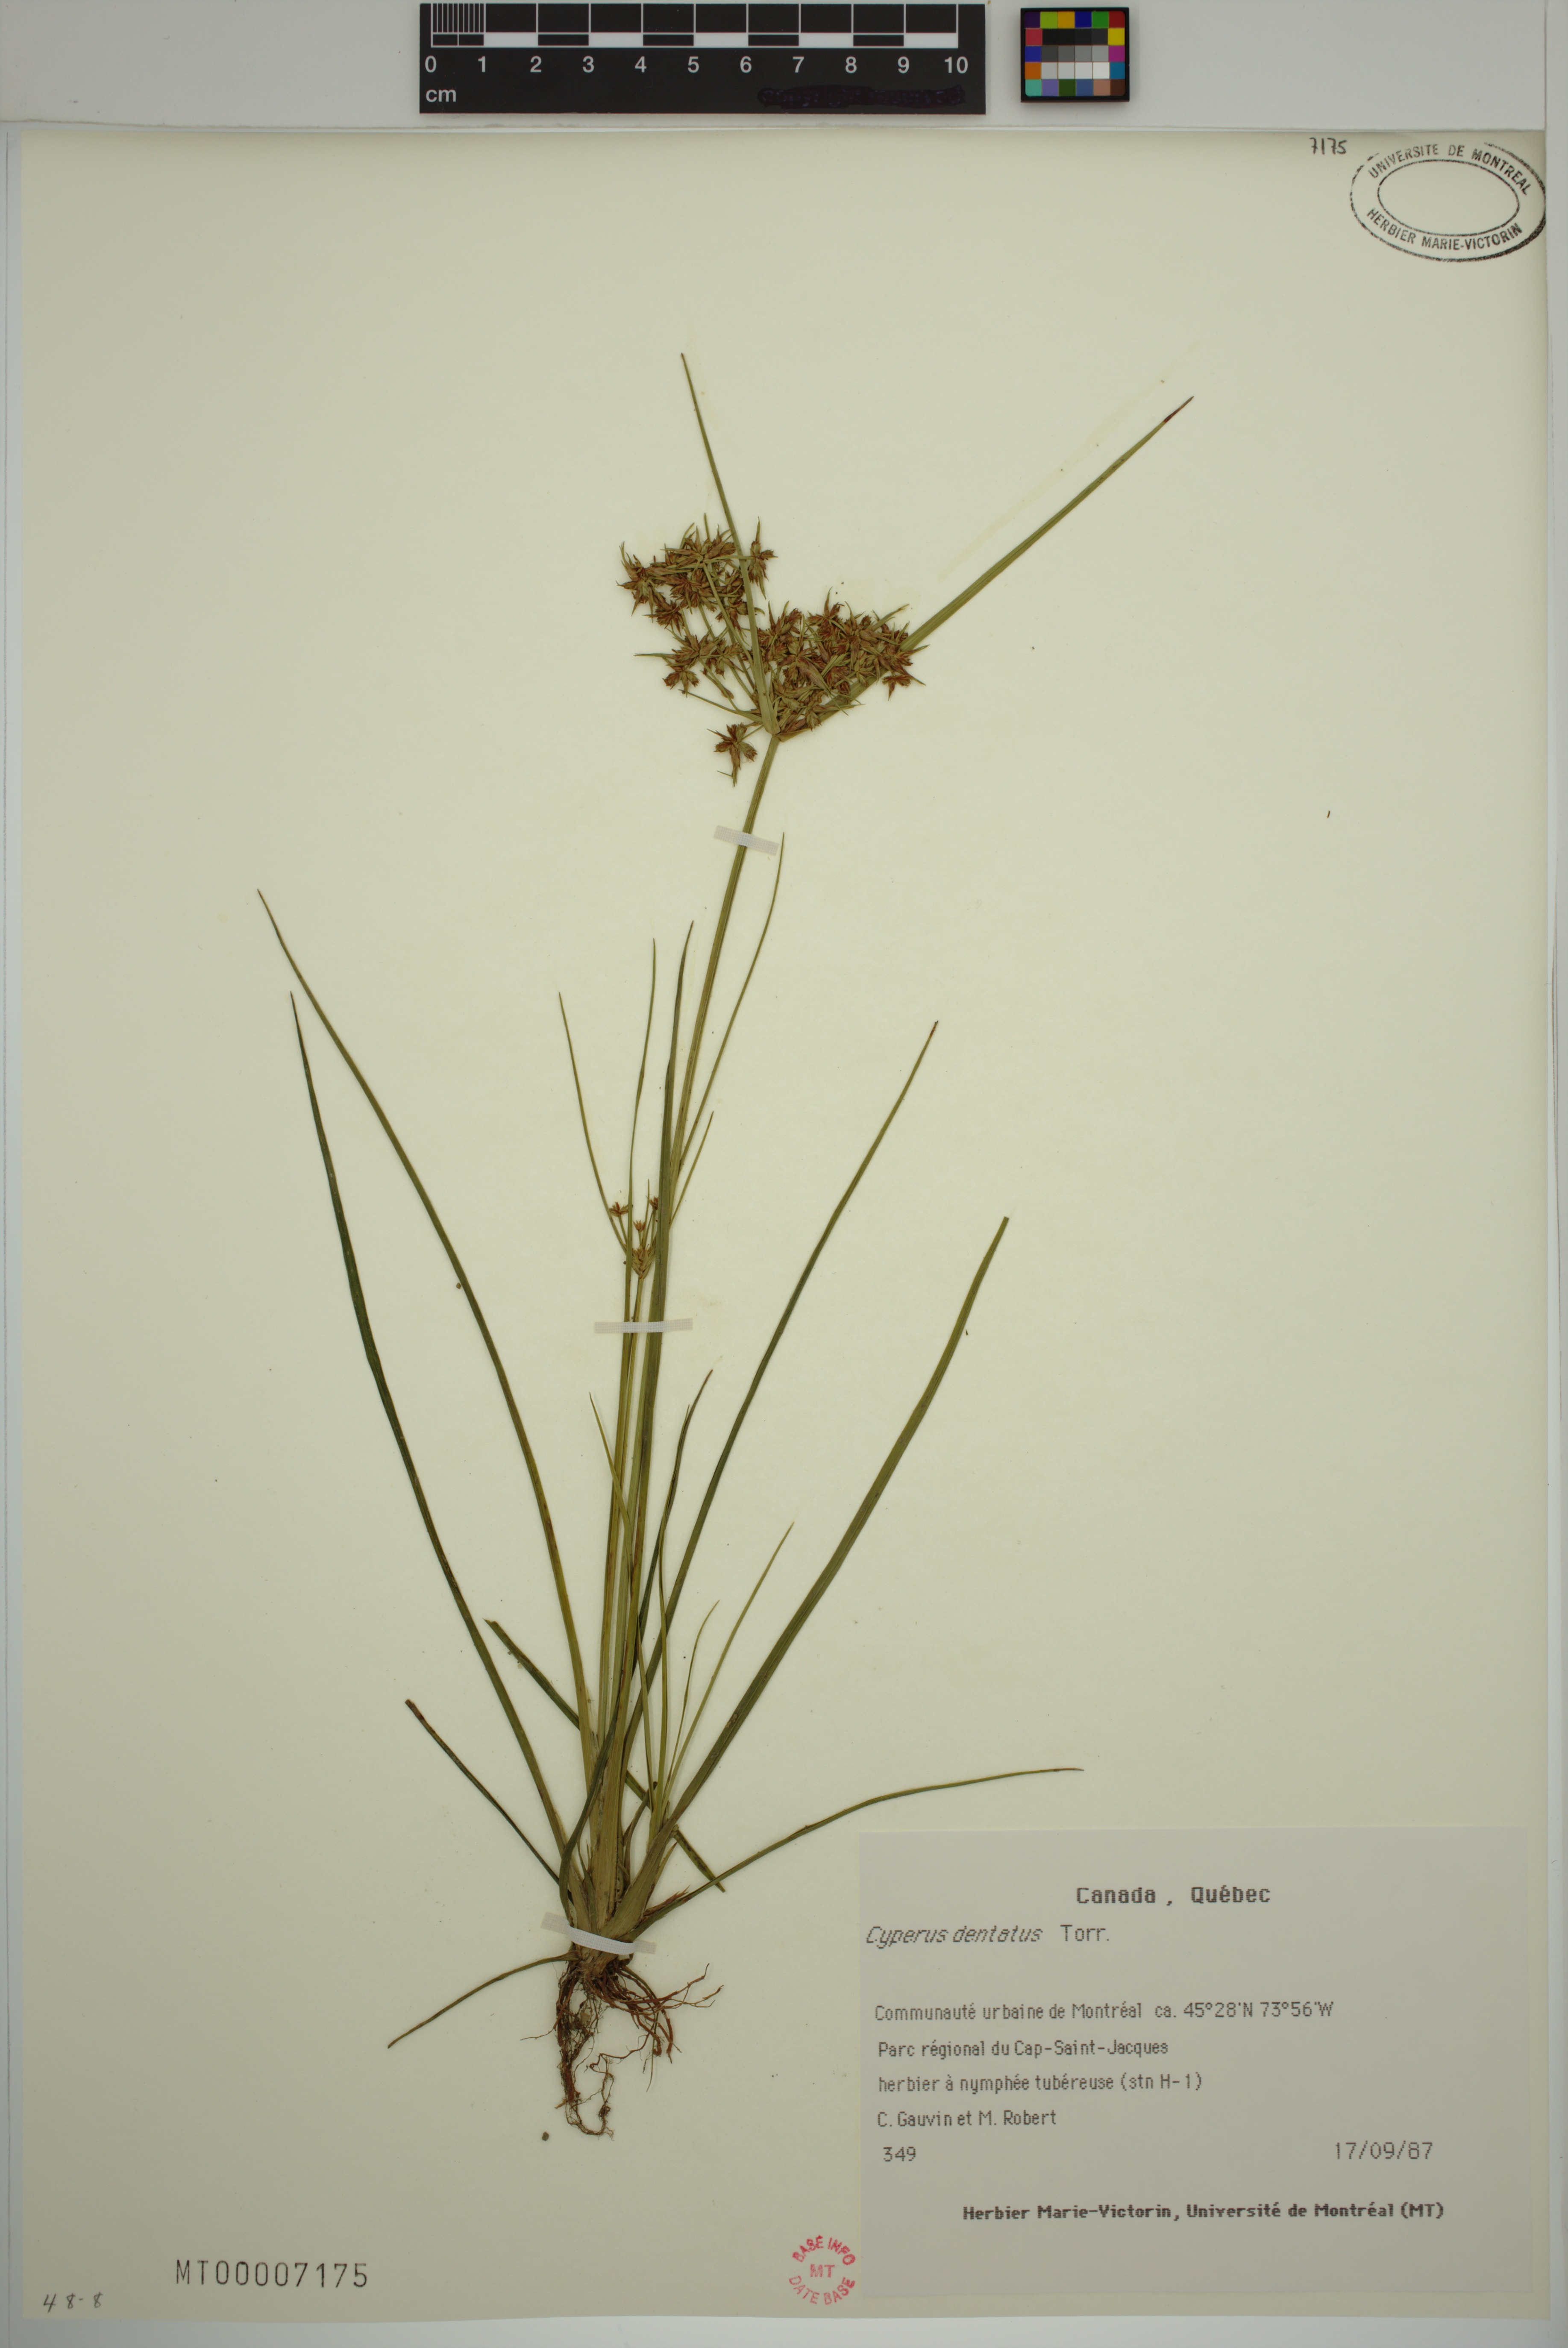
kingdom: Plantae
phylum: Tracheophyta
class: Liliopsida
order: Poales
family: Cyperaceae
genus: Cyperus
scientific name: Cyperus dentatus
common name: Dentate umbrella sedge
